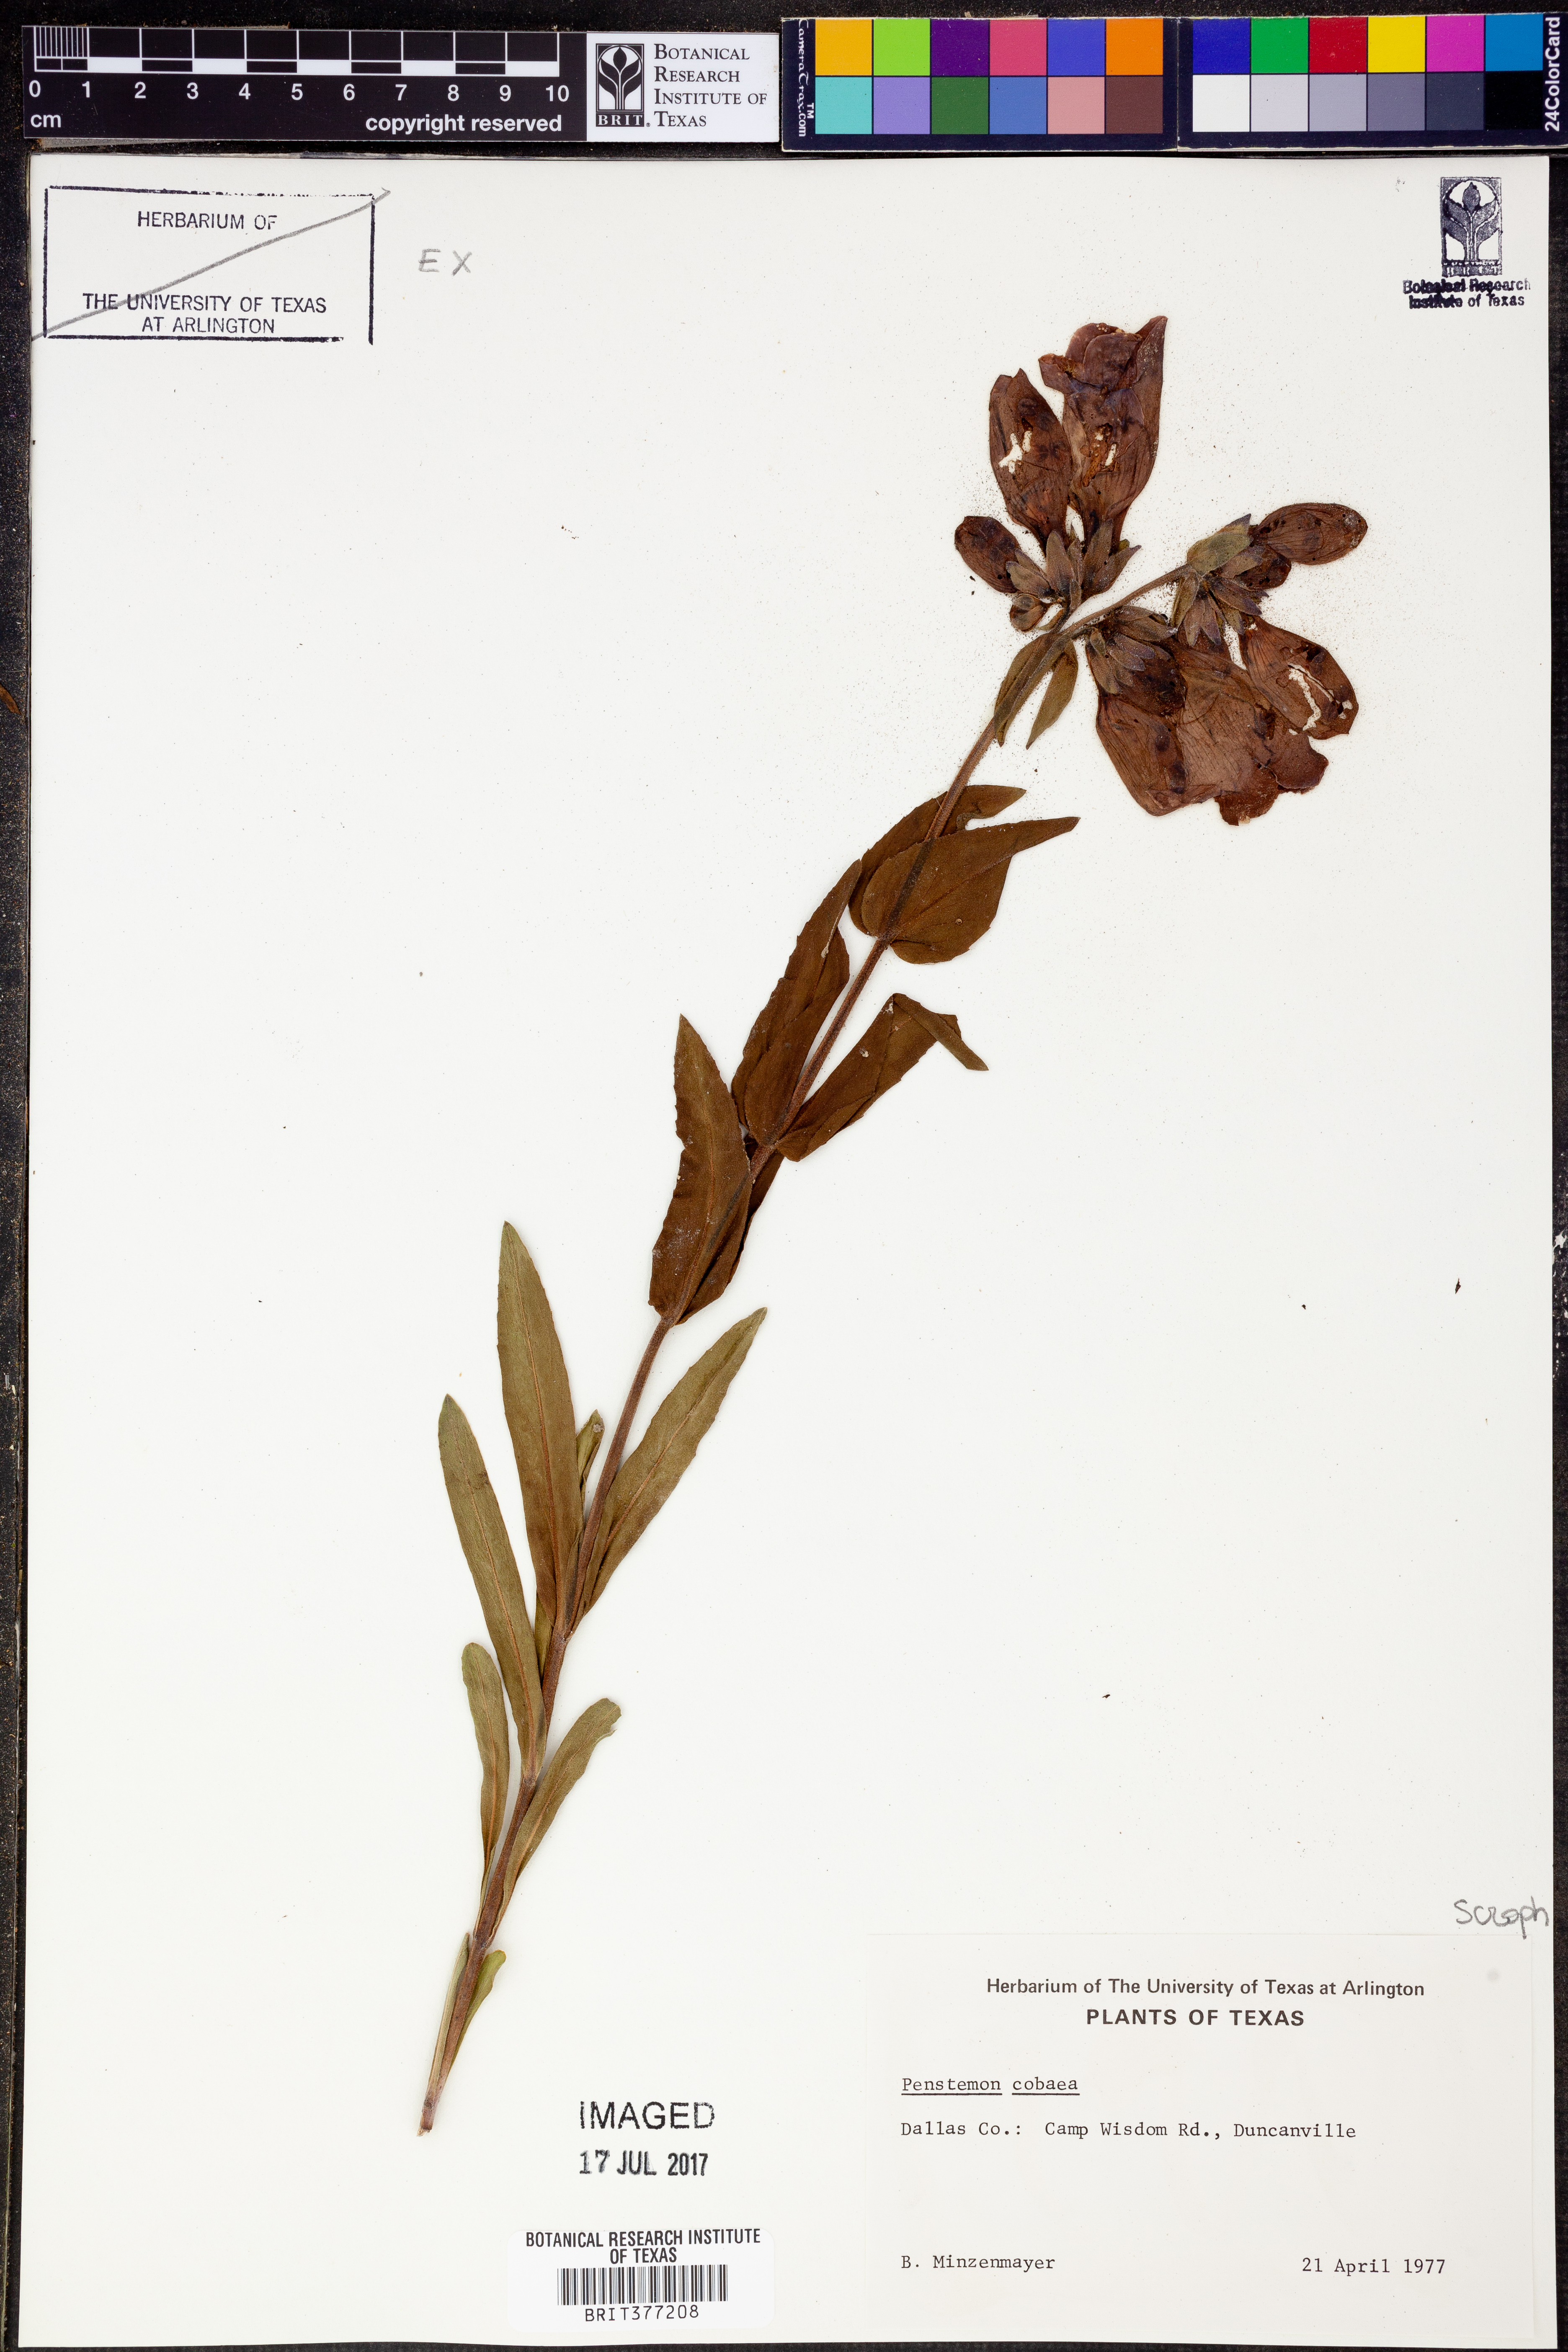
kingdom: Plantae
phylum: Tracheophyta
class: Magnoliopsida
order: Lamiales
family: Plantaginaceae
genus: Penstemon
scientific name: Penstemon cobaea
